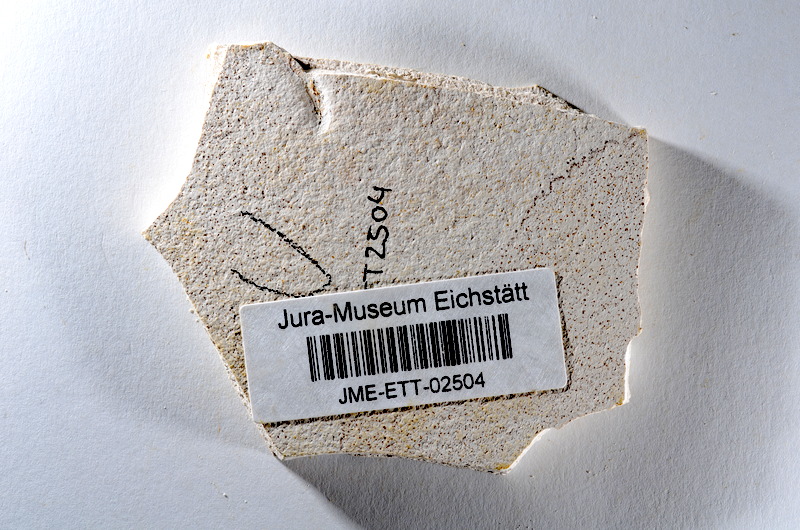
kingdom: Animalia
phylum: Chordata
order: Salmoniformes
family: Orthogonikleithridae
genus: Orthogonikleithrus
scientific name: Orthogonikleithrus hoelli
